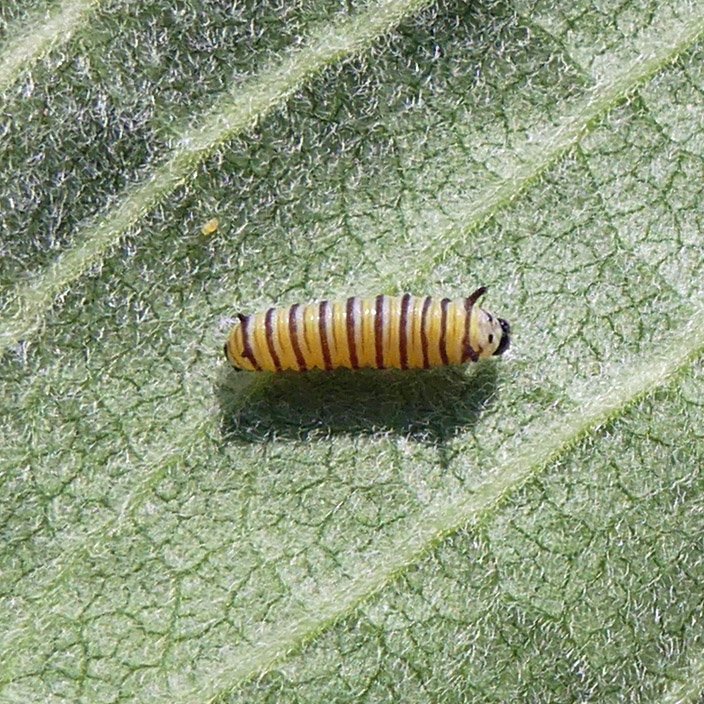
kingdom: Animalia
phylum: Arthropoda
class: Insecta
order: Lepidoptera
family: Nymphalidae
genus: Danaus
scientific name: Danaus plexippus
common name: Monarch
